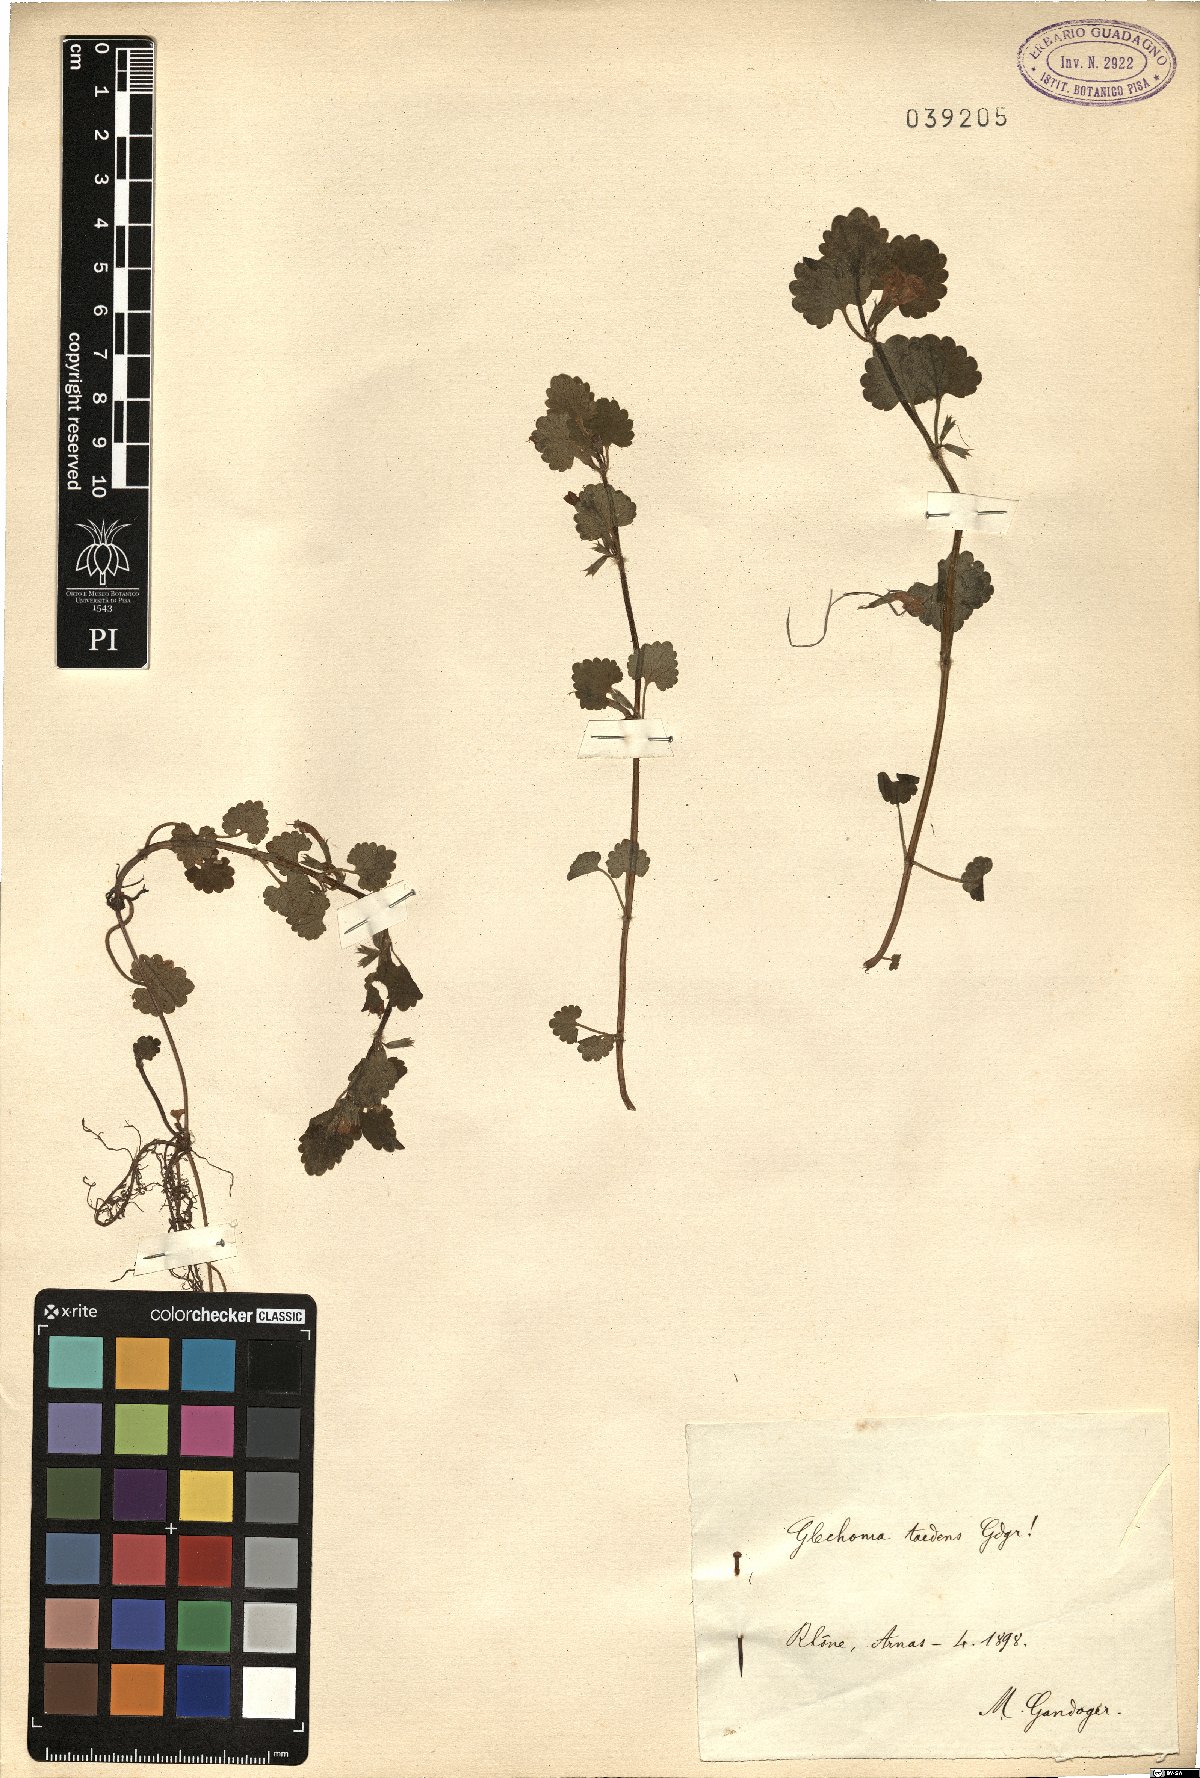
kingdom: Plantae
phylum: Tracheophyta
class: Magnoliopsida
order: Lamiales
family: Lamiaceae
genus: Glechoma
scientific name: Glechoma
